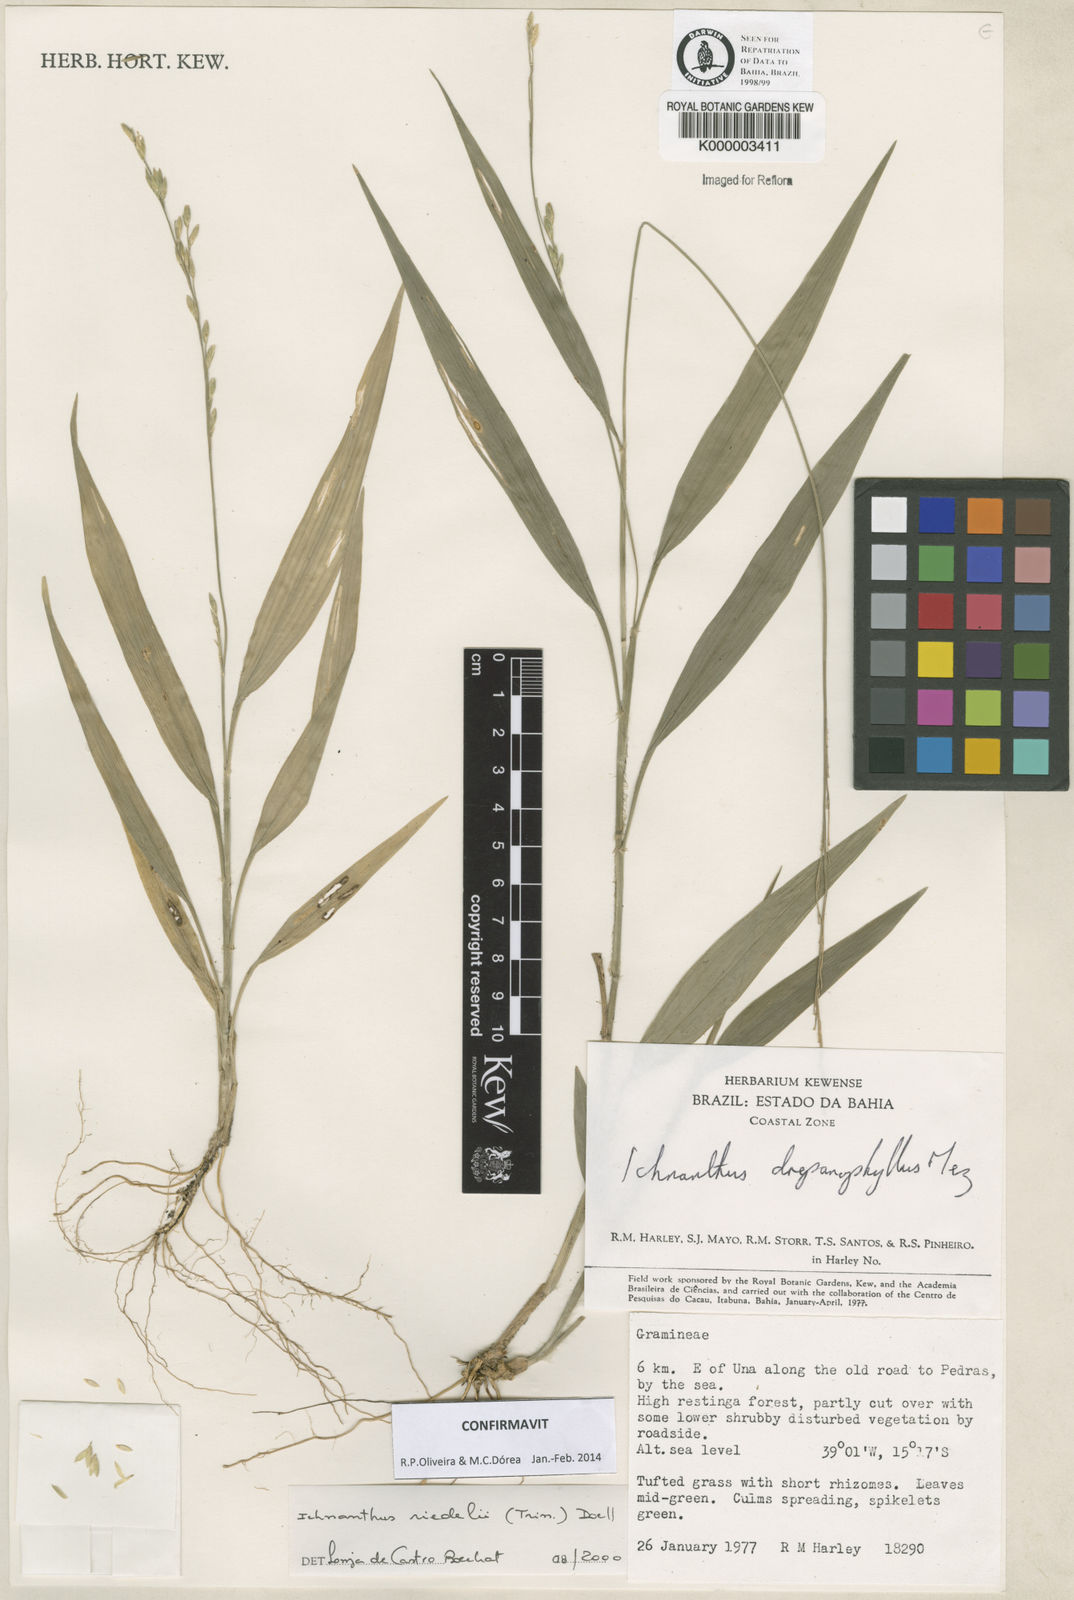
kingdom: Plantae
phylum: Tracheophyta
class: Liliopsida
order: Poales
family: Poaceae
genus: Ichnanthus
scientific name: Ichnanthus
